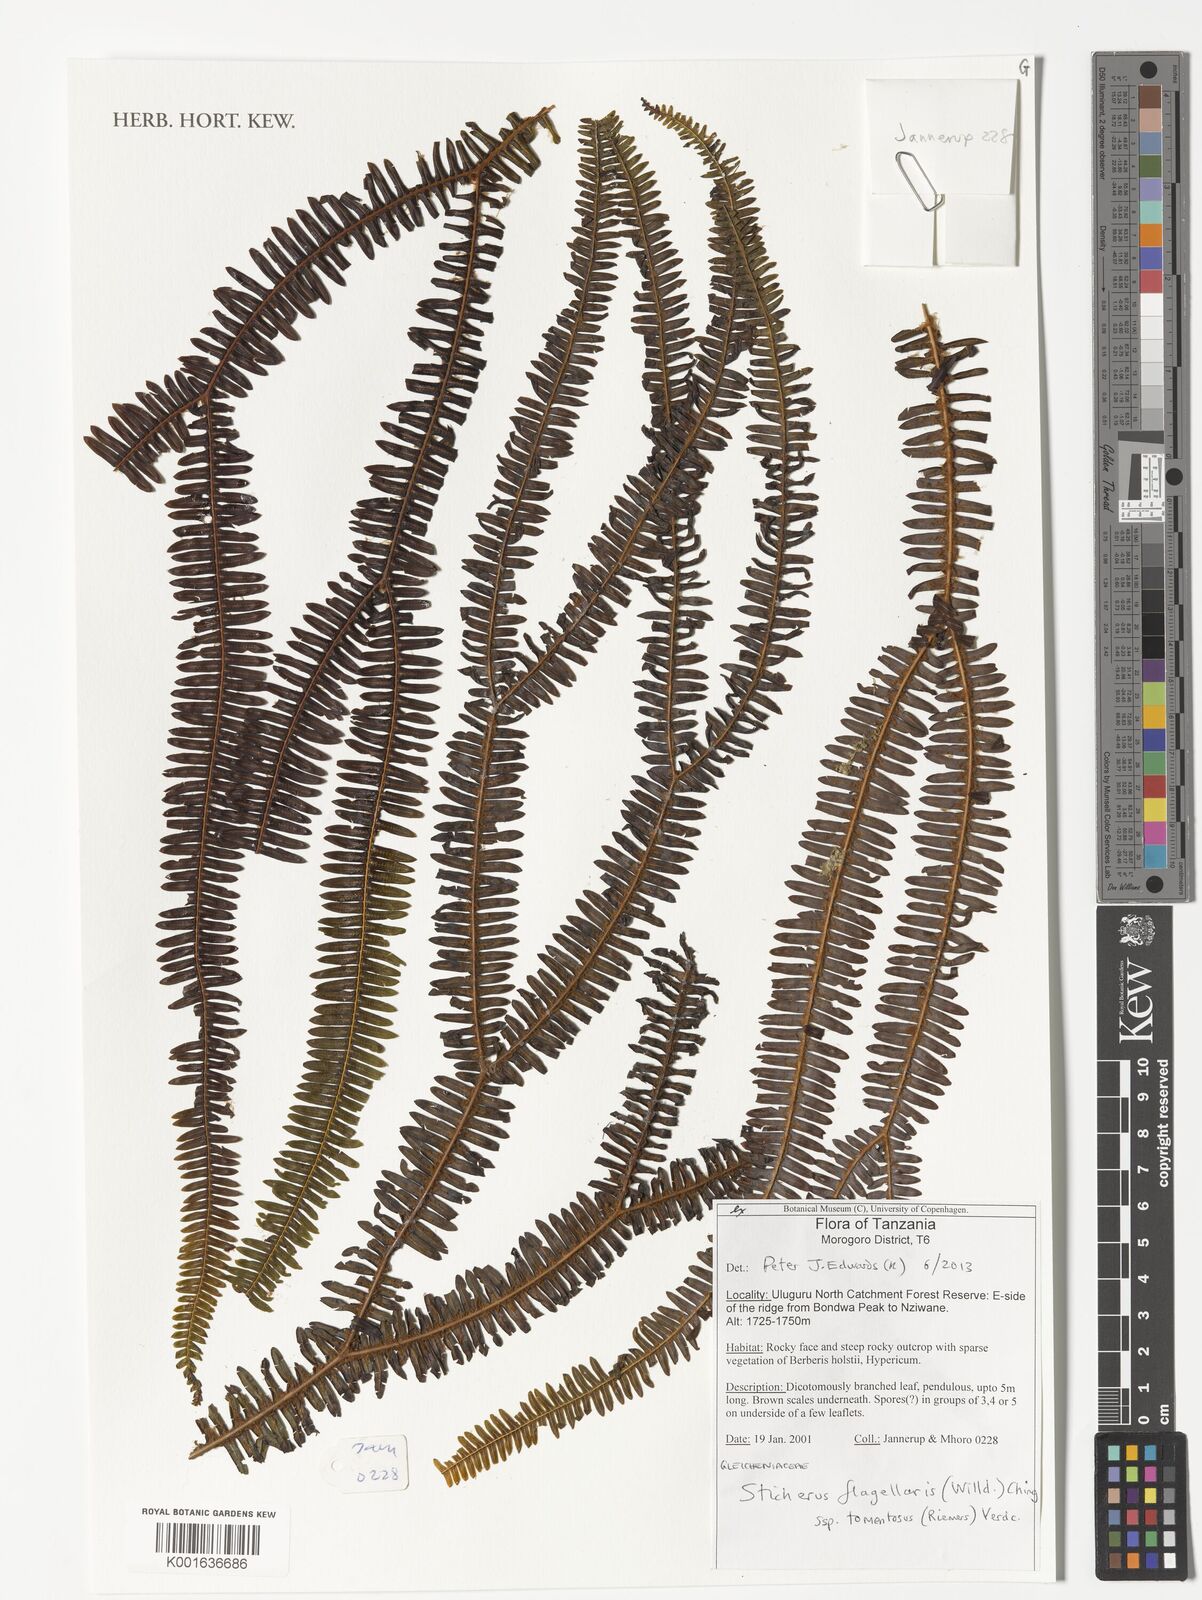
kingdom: Plantae
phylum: Tracheophyta
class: Polypodiopsida
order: Gleicheniales
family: Gleicheniaceae
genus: Sticherus
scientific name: Sticherus flagellaris
